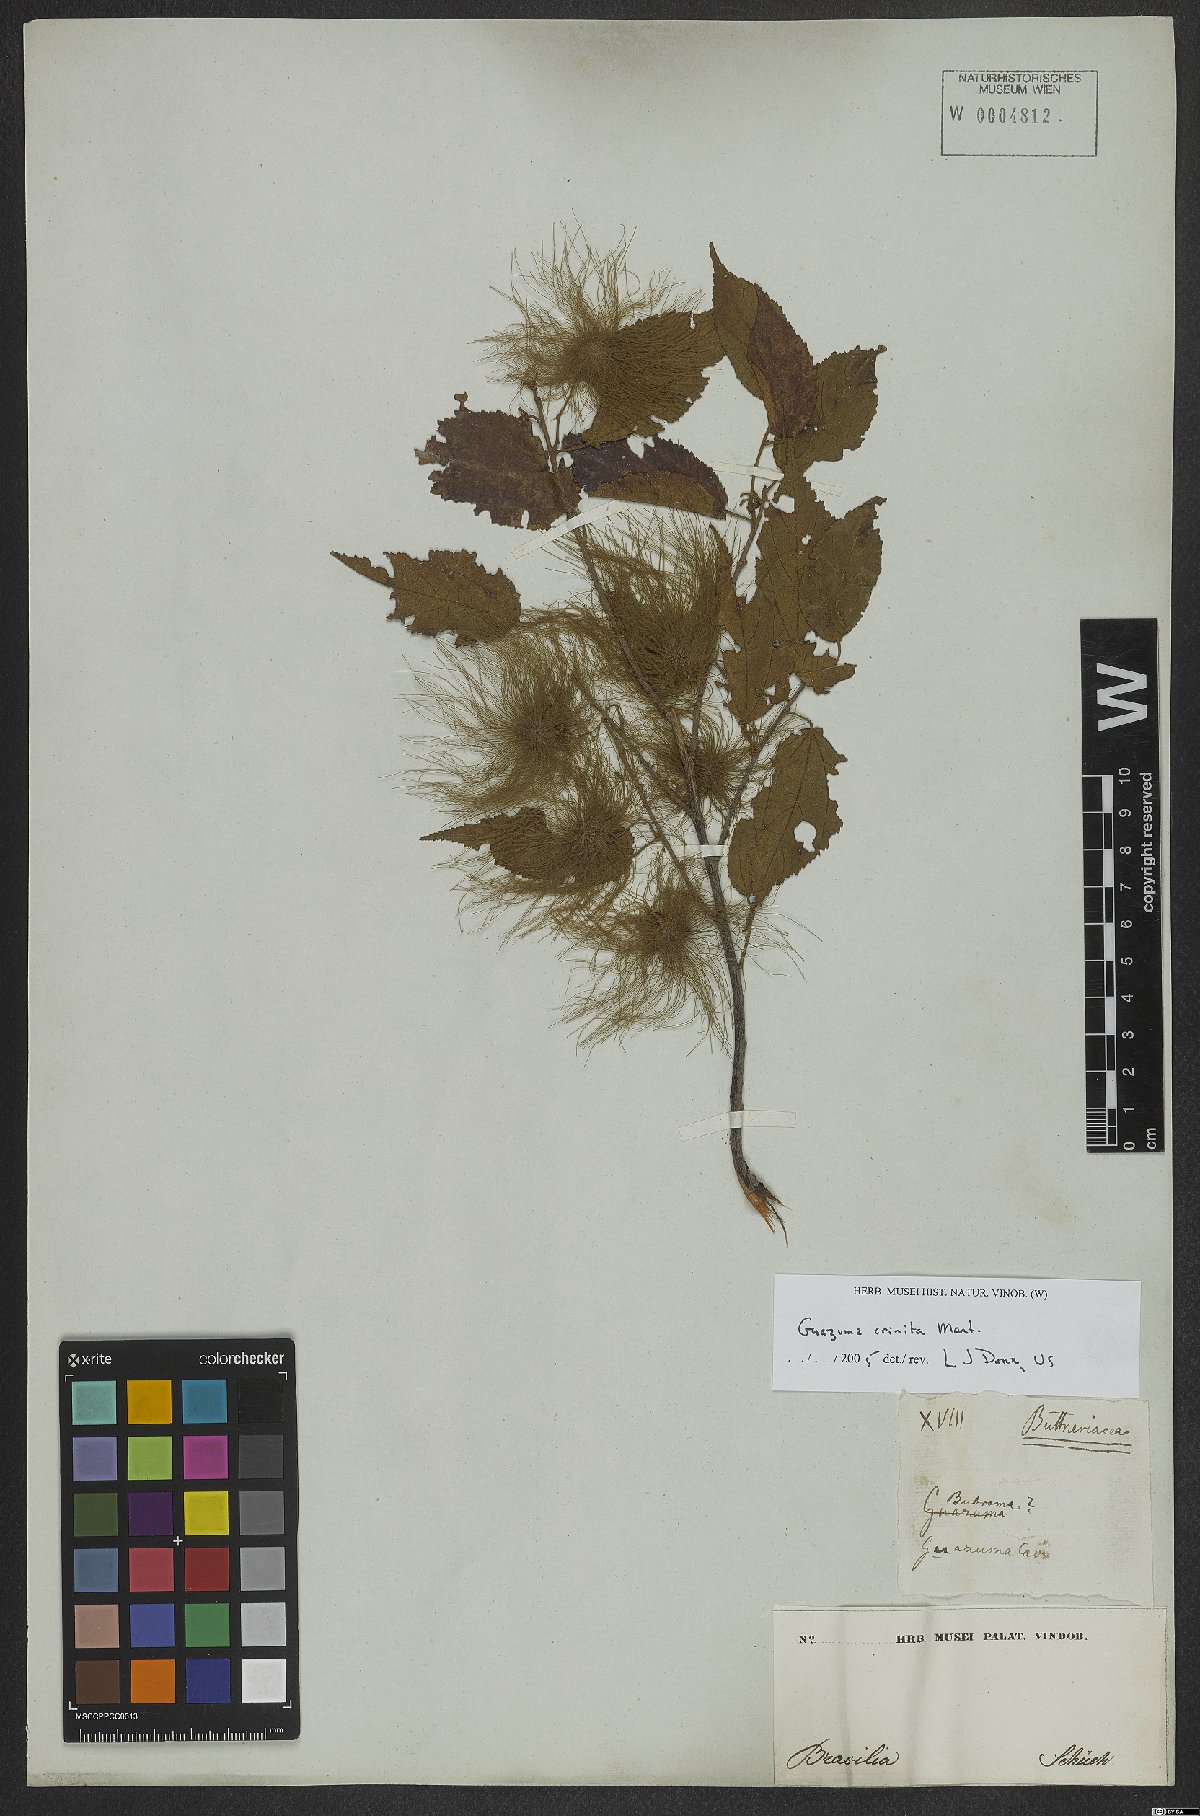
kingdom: Plantae
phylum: Tracheophyta
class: Magnoliopsida
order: Malvales
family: Malvaceae
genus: Guazuma
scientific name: Guazuma crinita
